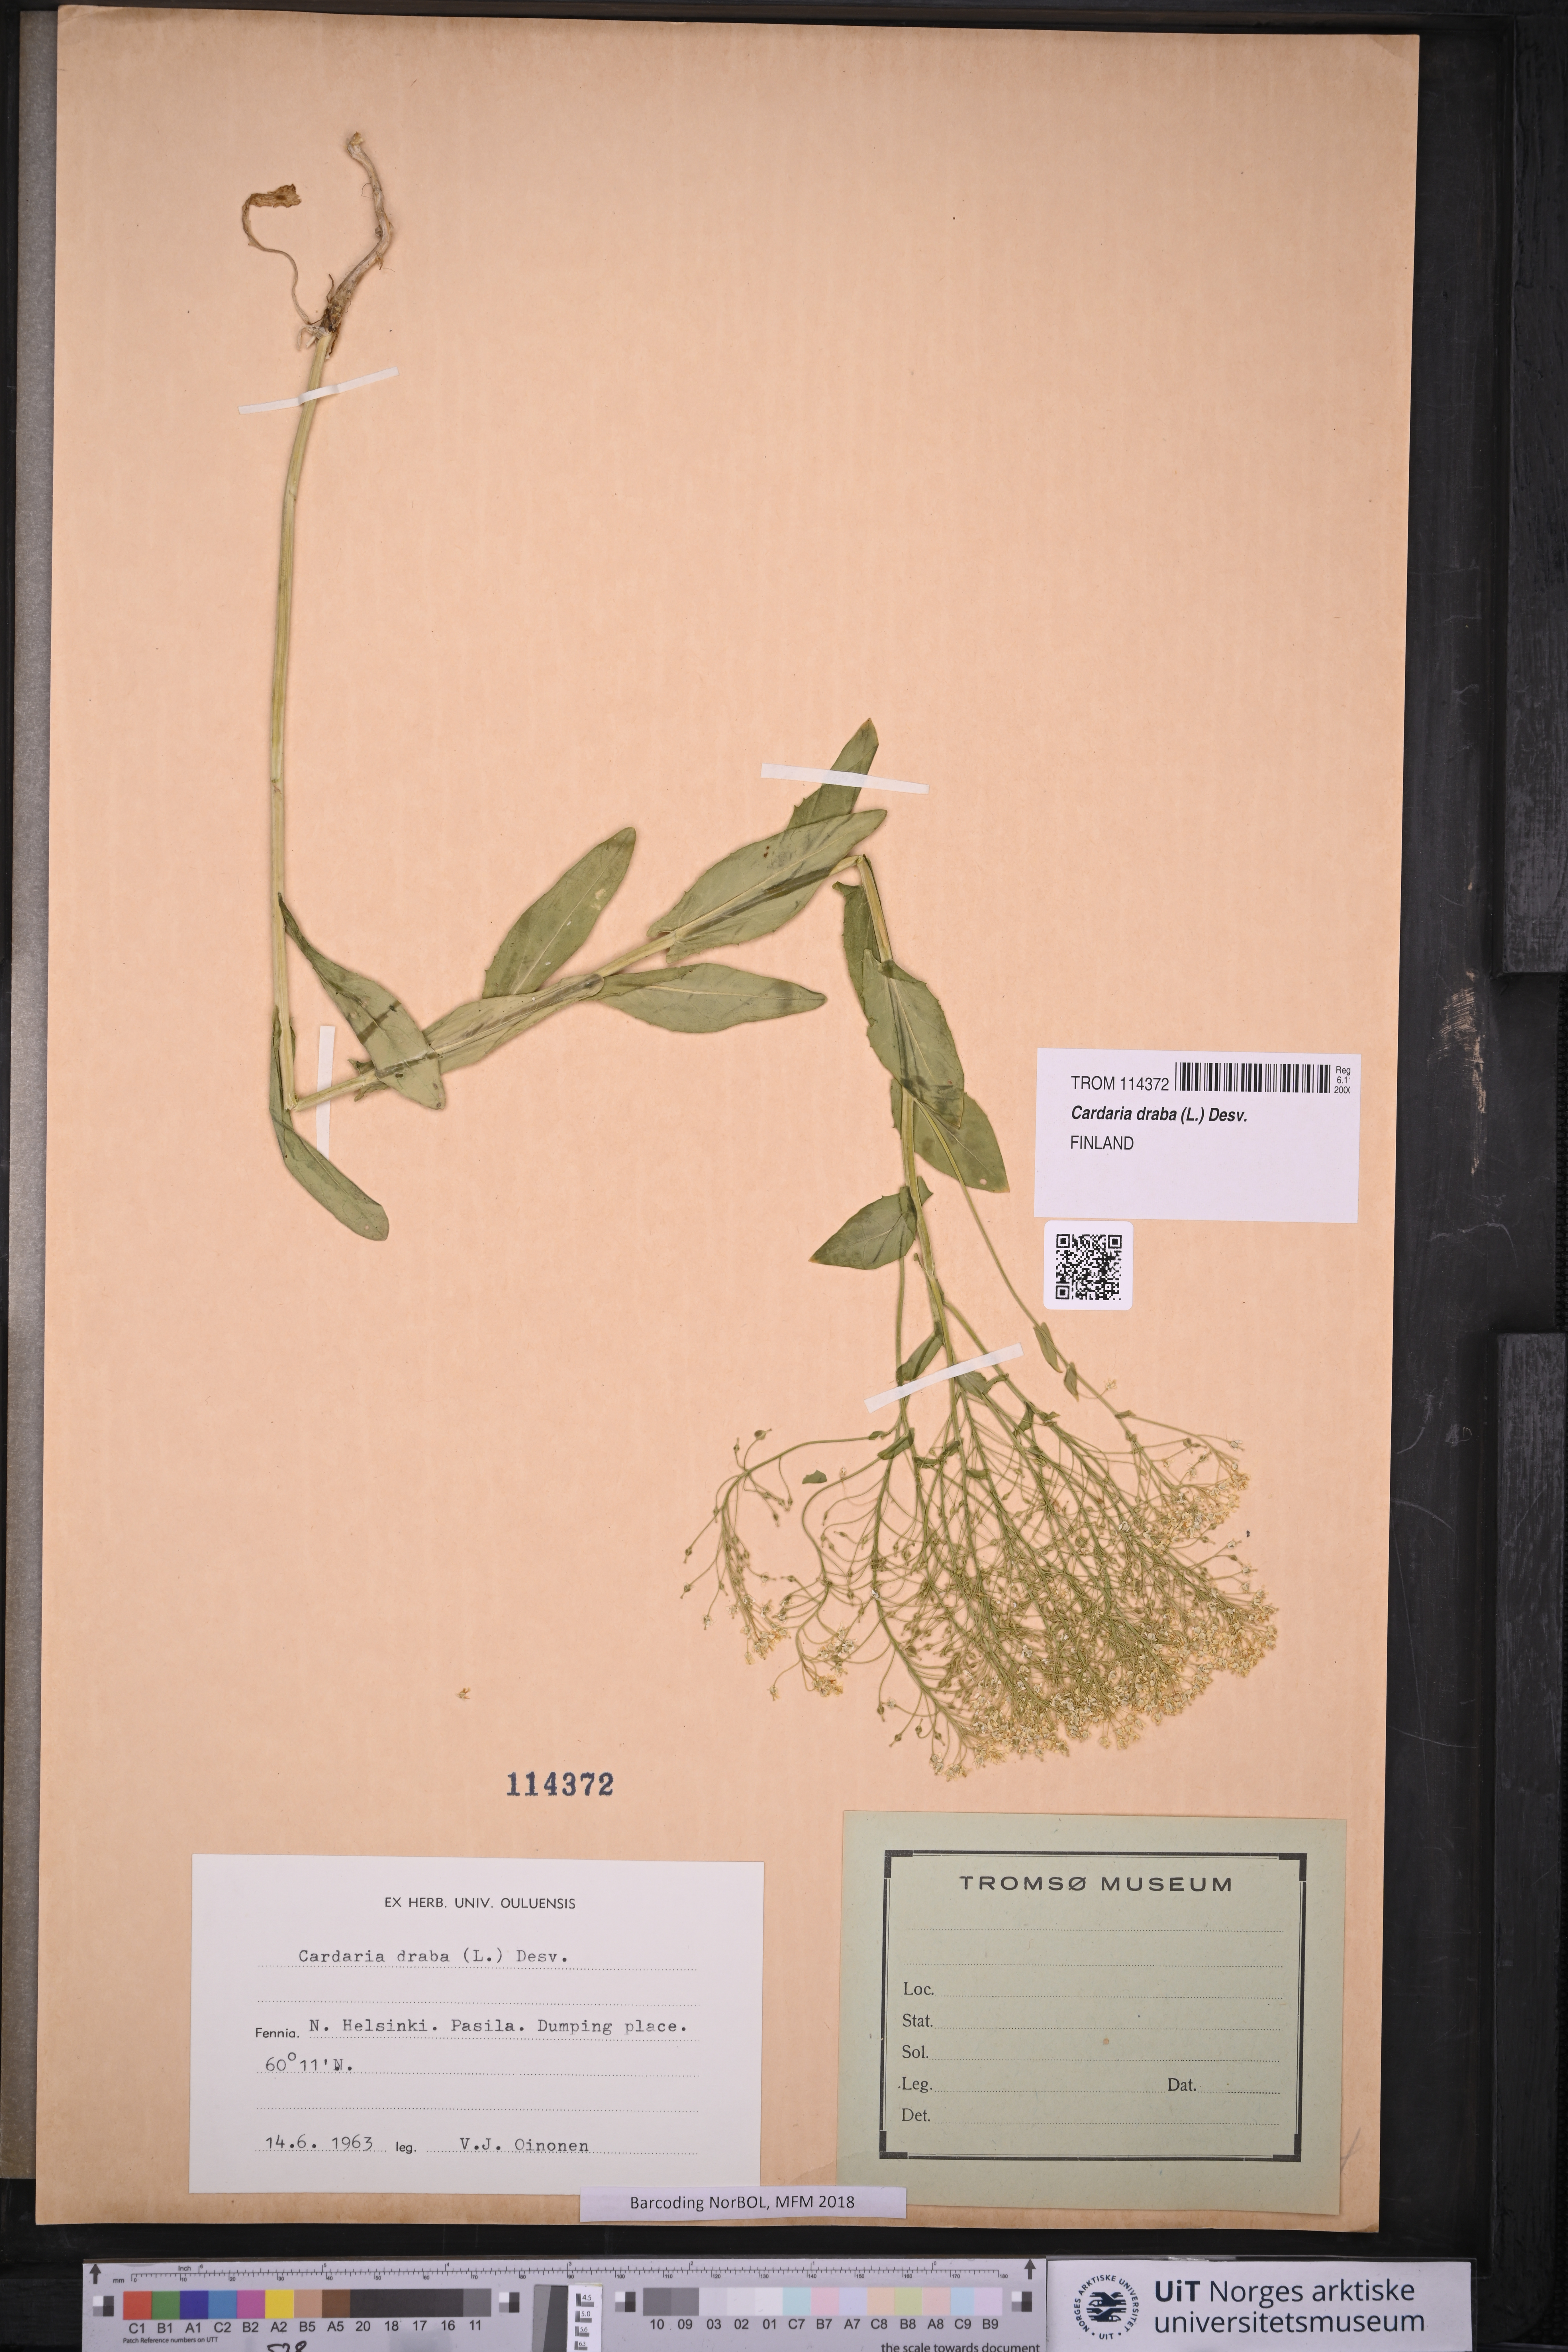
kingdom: Plantae
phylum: Tracheophyta
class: Magnoliopsida
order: Brassicales
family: Brassicaceae
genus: Lepidium
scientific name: Lepidium draba
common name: Hoary cress
